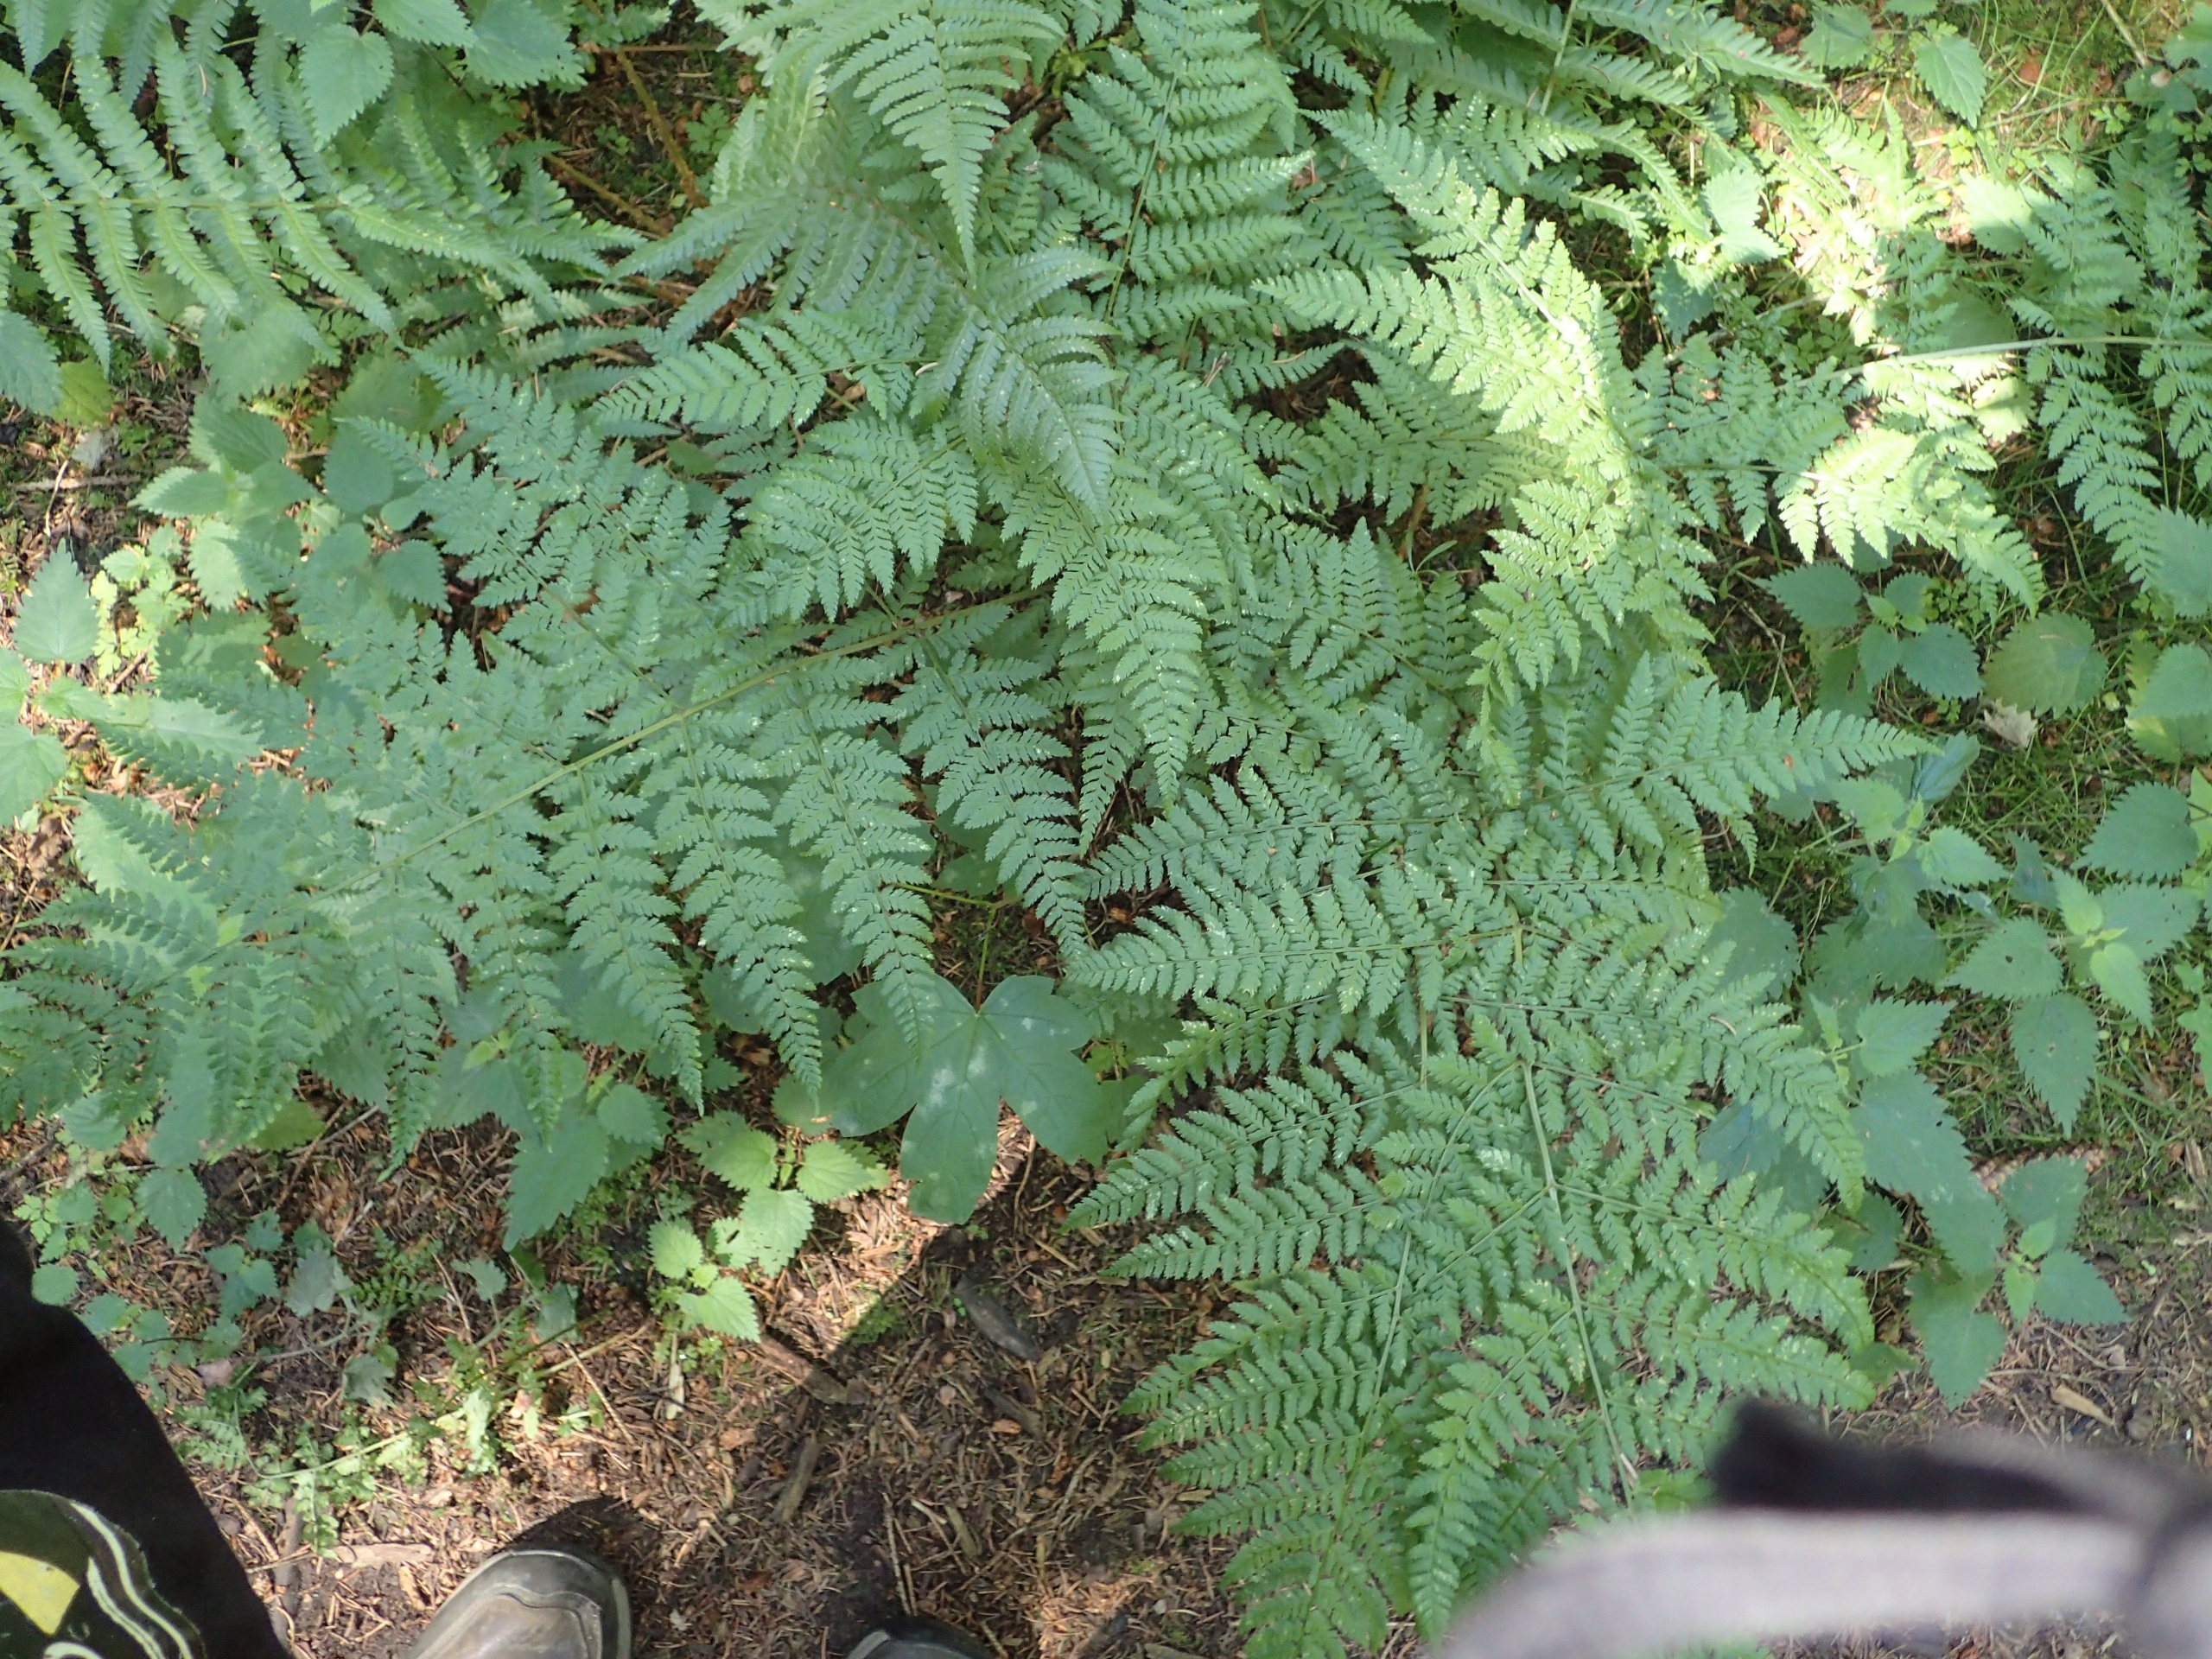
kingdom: Plantae
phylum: Tracheophyta
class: Polypodiopsida
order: Polypodiales
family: Dryopteridaceae
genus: Dryopteris
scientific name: Dryopteris dilatata
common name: Bredbladet mangeløv
